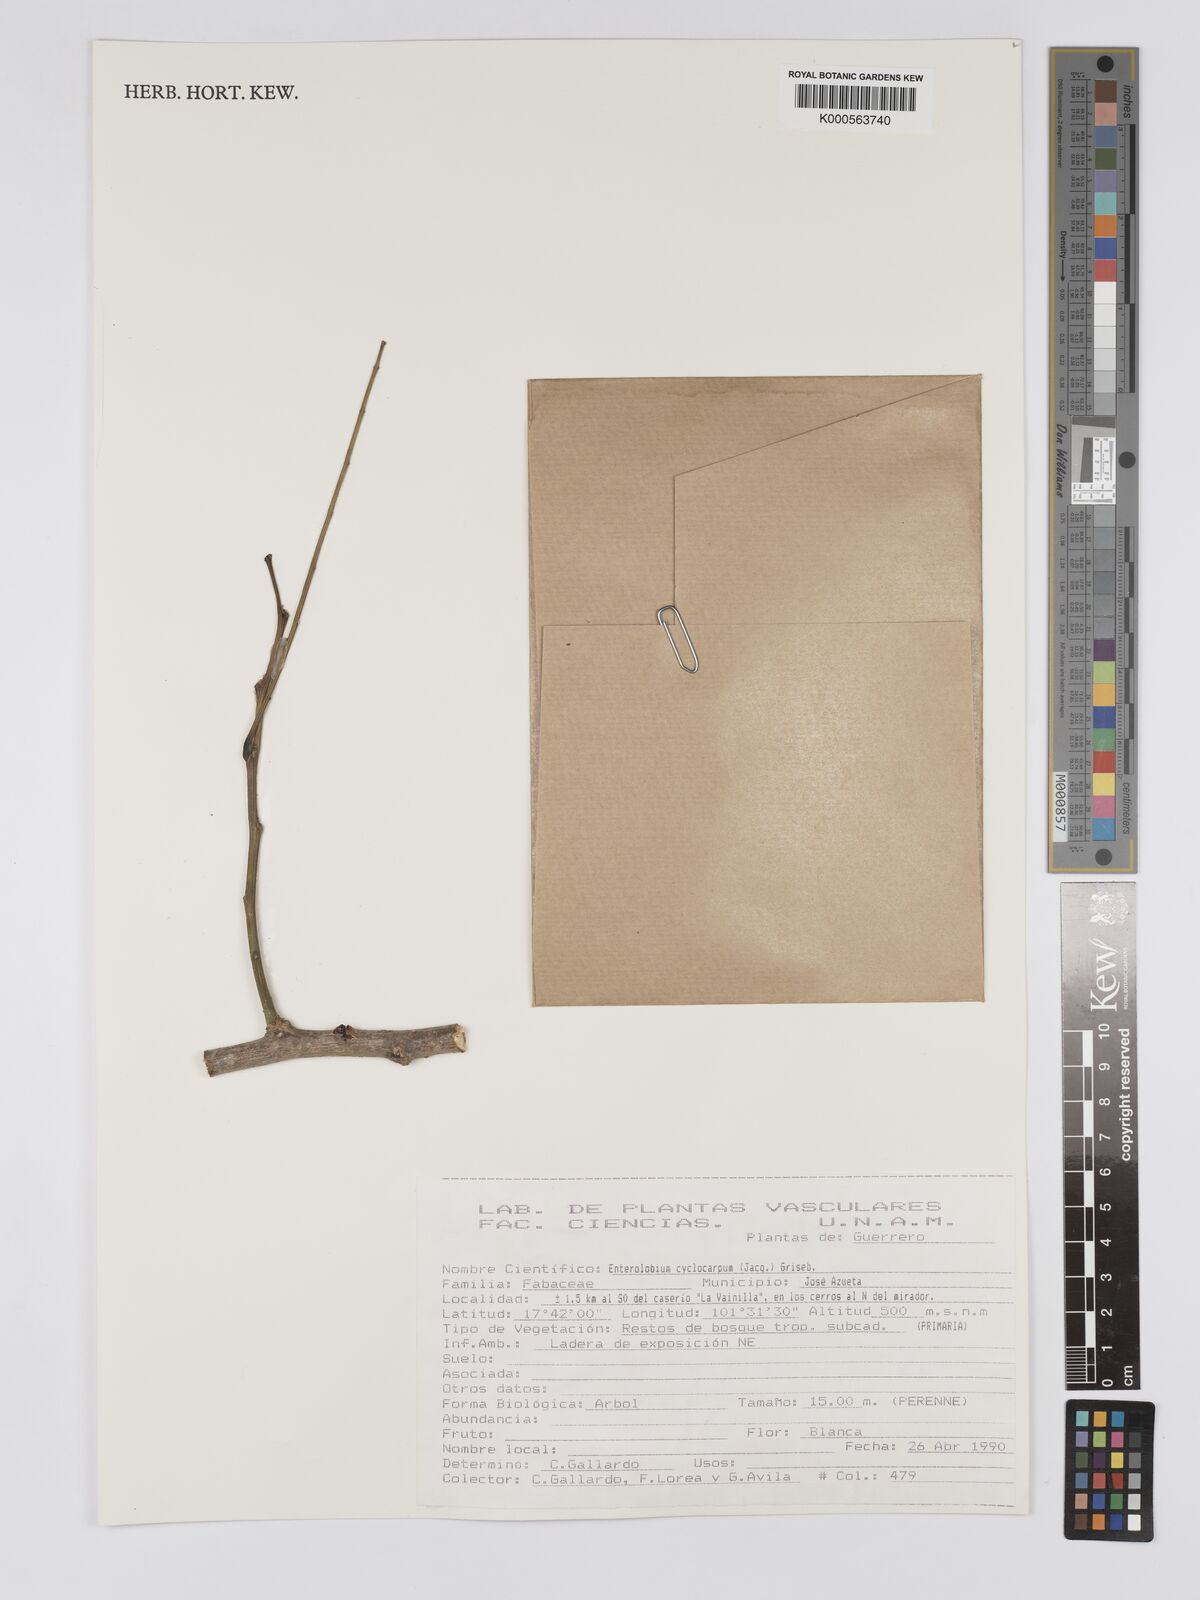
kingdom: Plantae
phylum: Tracheophyta
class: Magnoliopsida
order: Fabales
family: Fabaceae
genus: Enterolobium
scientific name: Enterolobium cyclocarpum
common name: Ear tree
